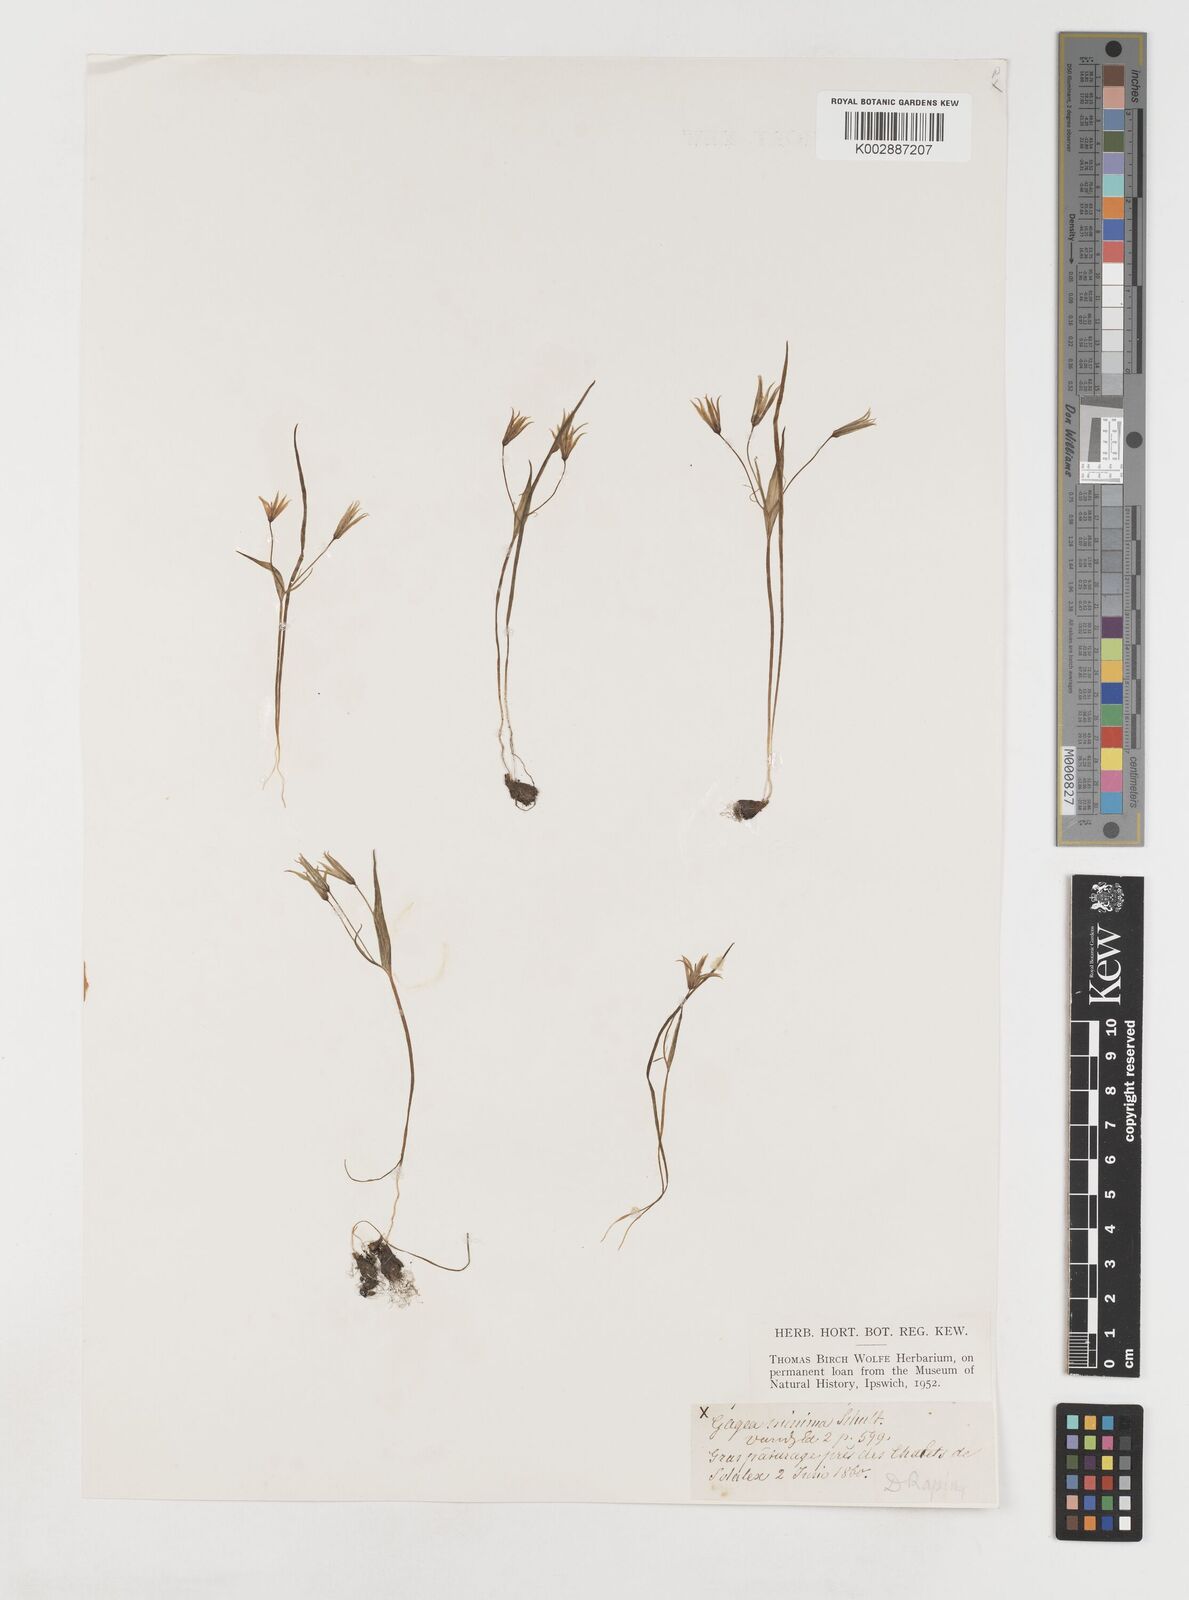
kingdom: Plantae
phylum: Tracheophyta
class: Liliopsida
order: Liliales
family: Liliaceae
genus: Gagea
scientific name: Gagea minima
